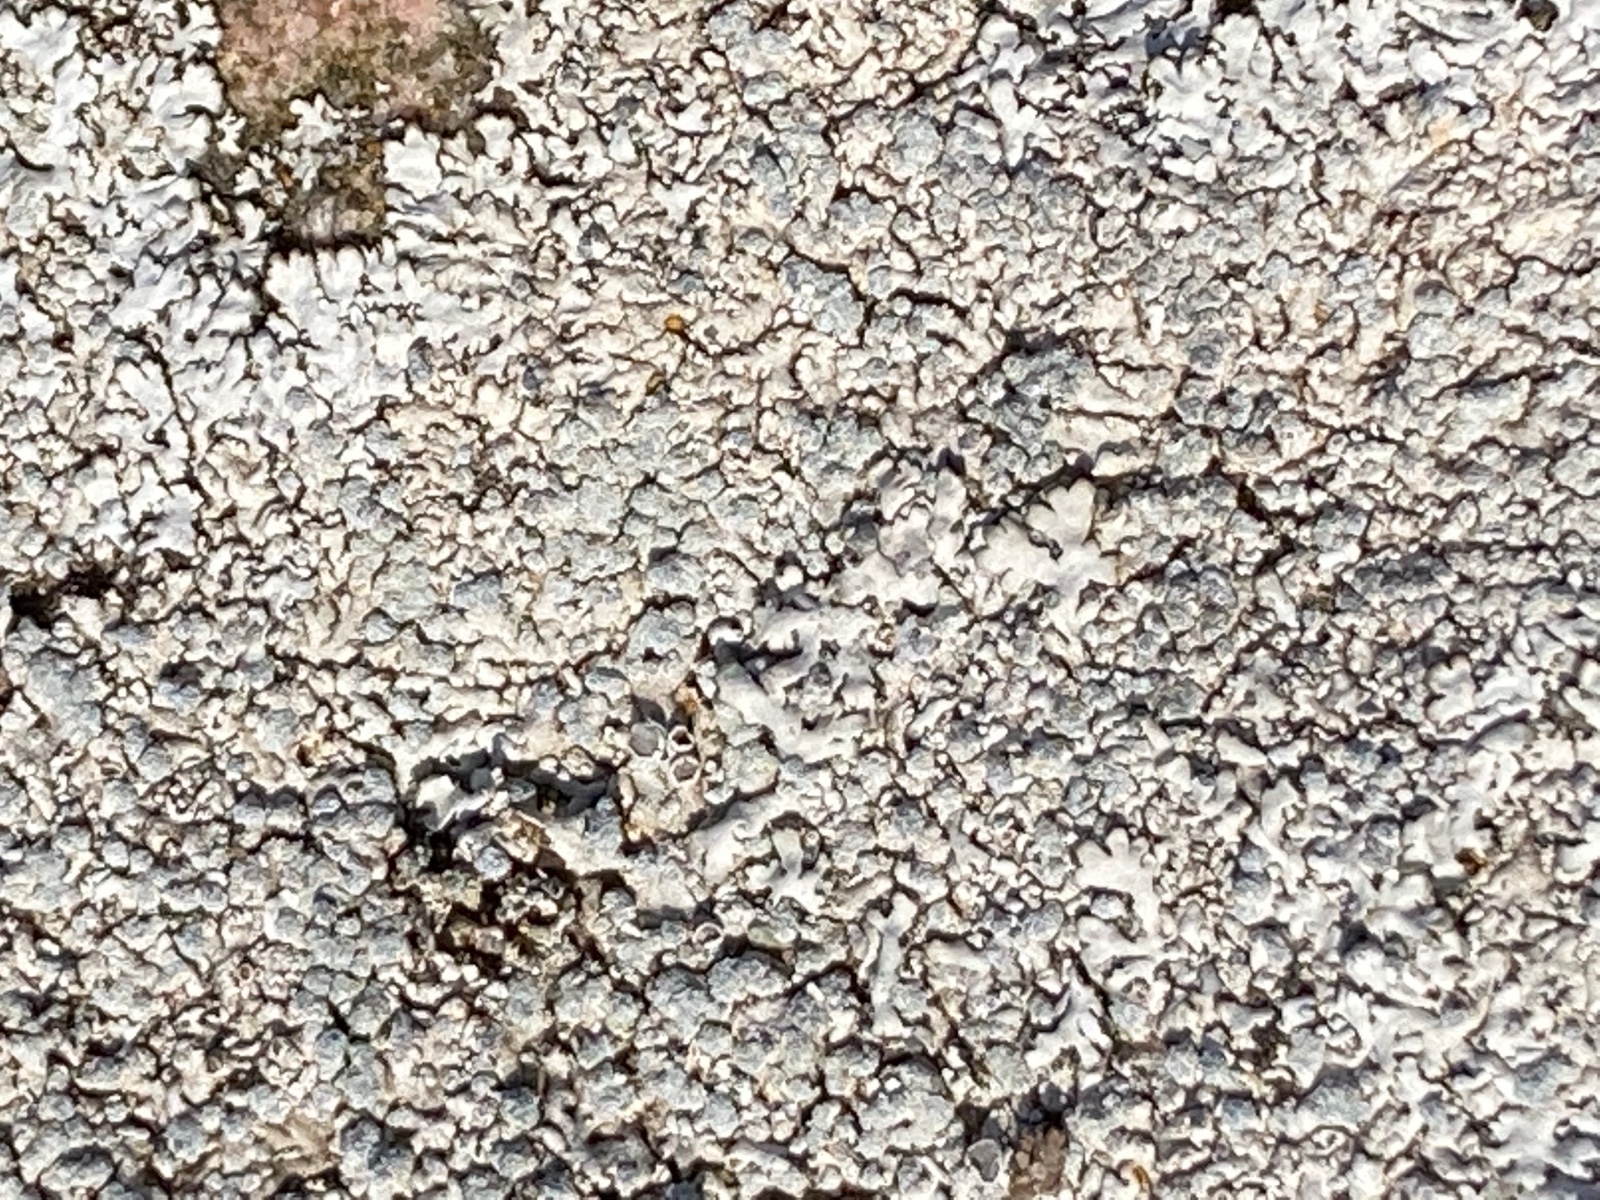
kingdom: Fungi
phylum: Ascomycota
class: Lecanoromycetes
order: Caliciales
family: Physciaceae
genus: Physcia
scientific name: Physcia caesia
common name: blågrå rosetlav
